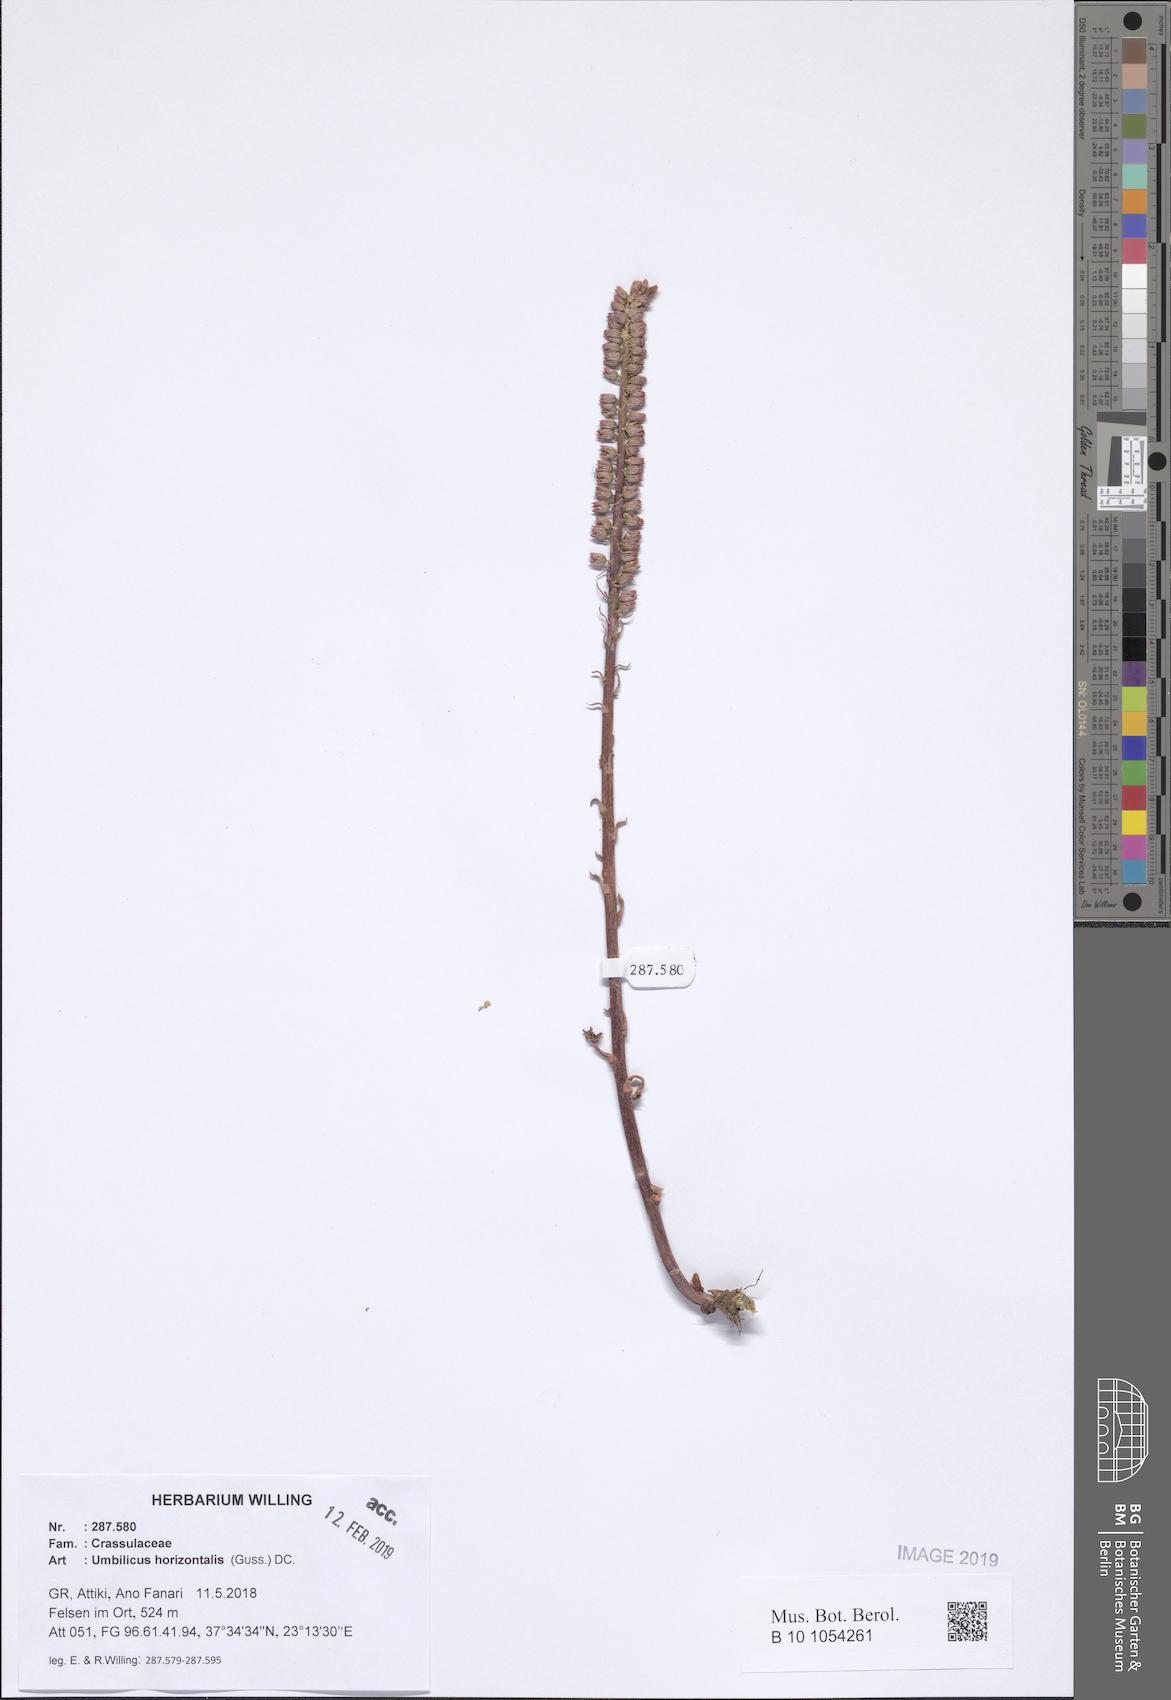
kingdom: Plantae
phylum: Tracheophyta
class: Magnoliopsida
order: Saxifragales
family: Crassulaceae
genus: Umbilicus
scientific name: Umbilicus horizontalis
